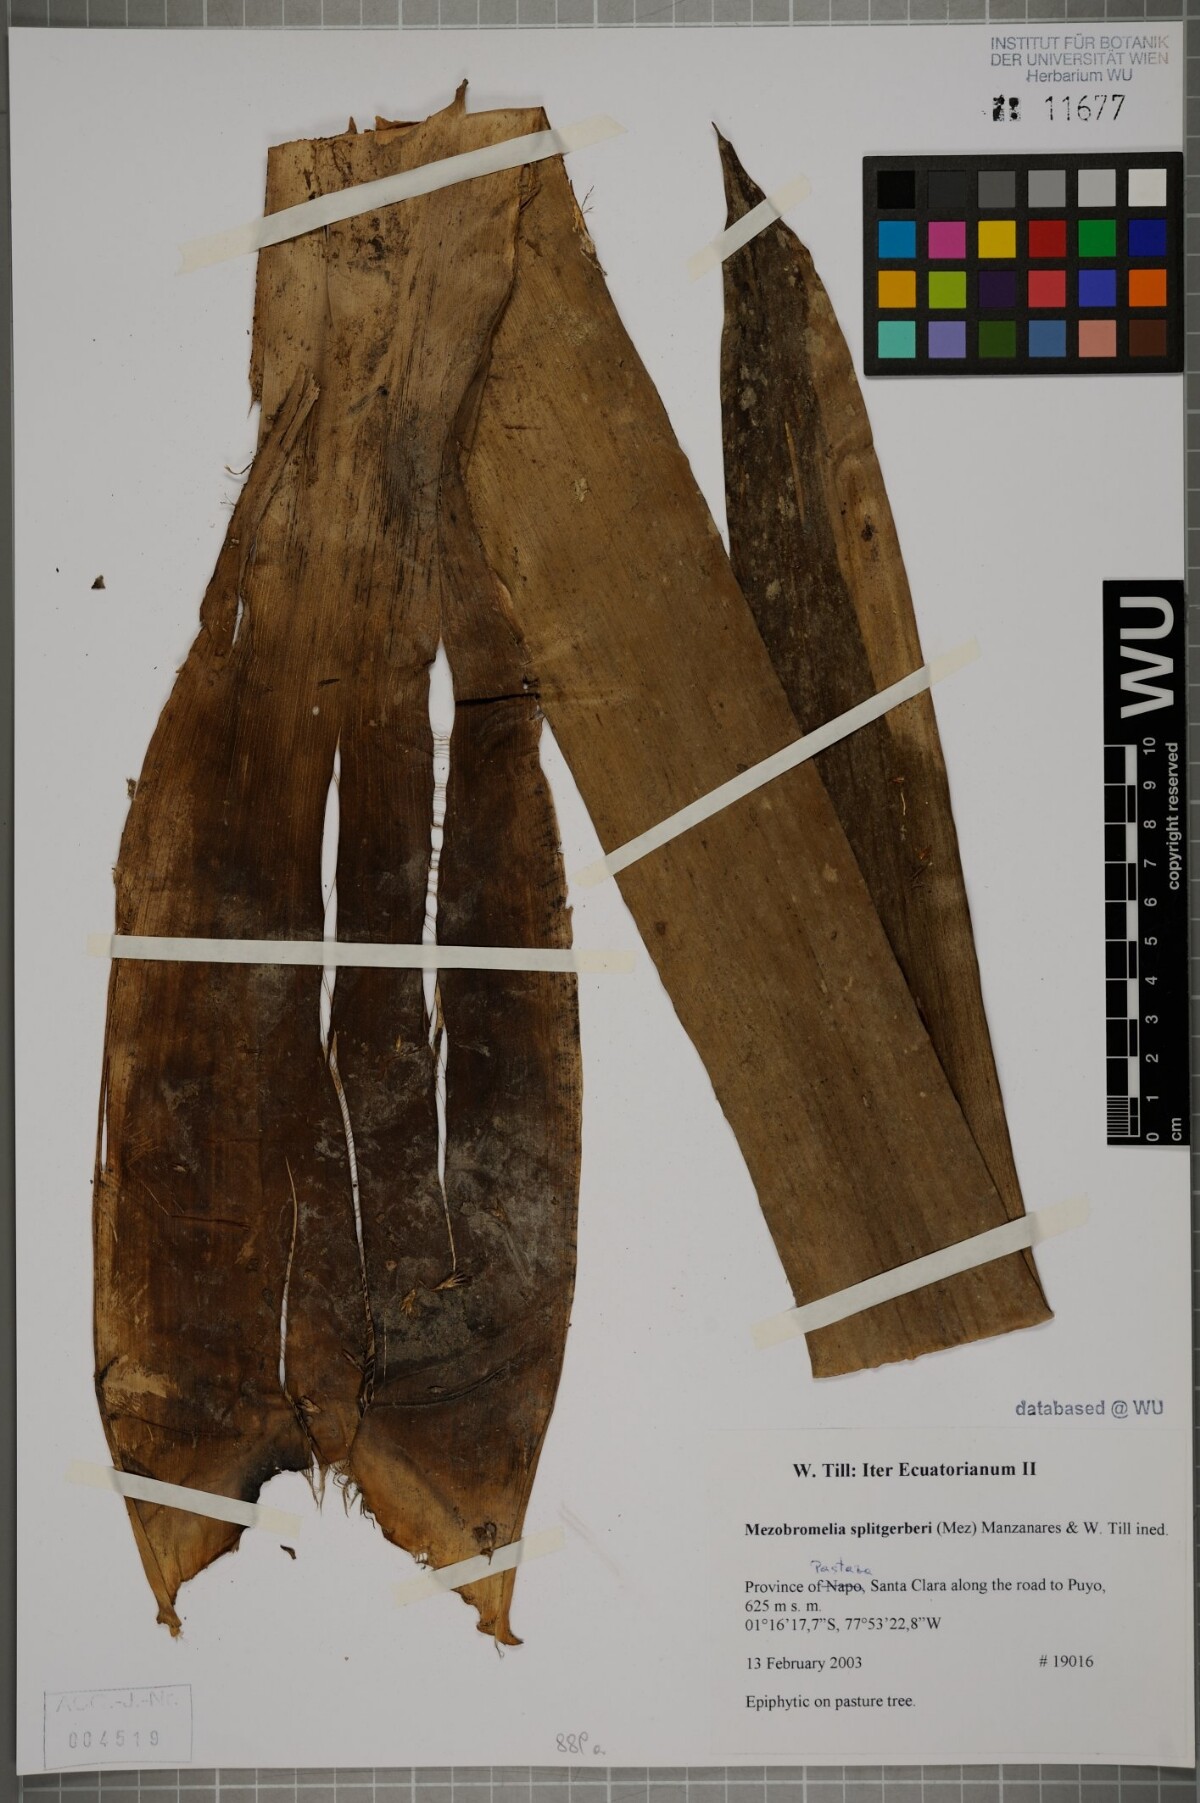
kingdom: Plantae
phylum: Tracheophyta
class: Liliopsida
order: Poales
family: Bromeliaceae
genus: Cipuropsis
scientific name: Cipuropsis
